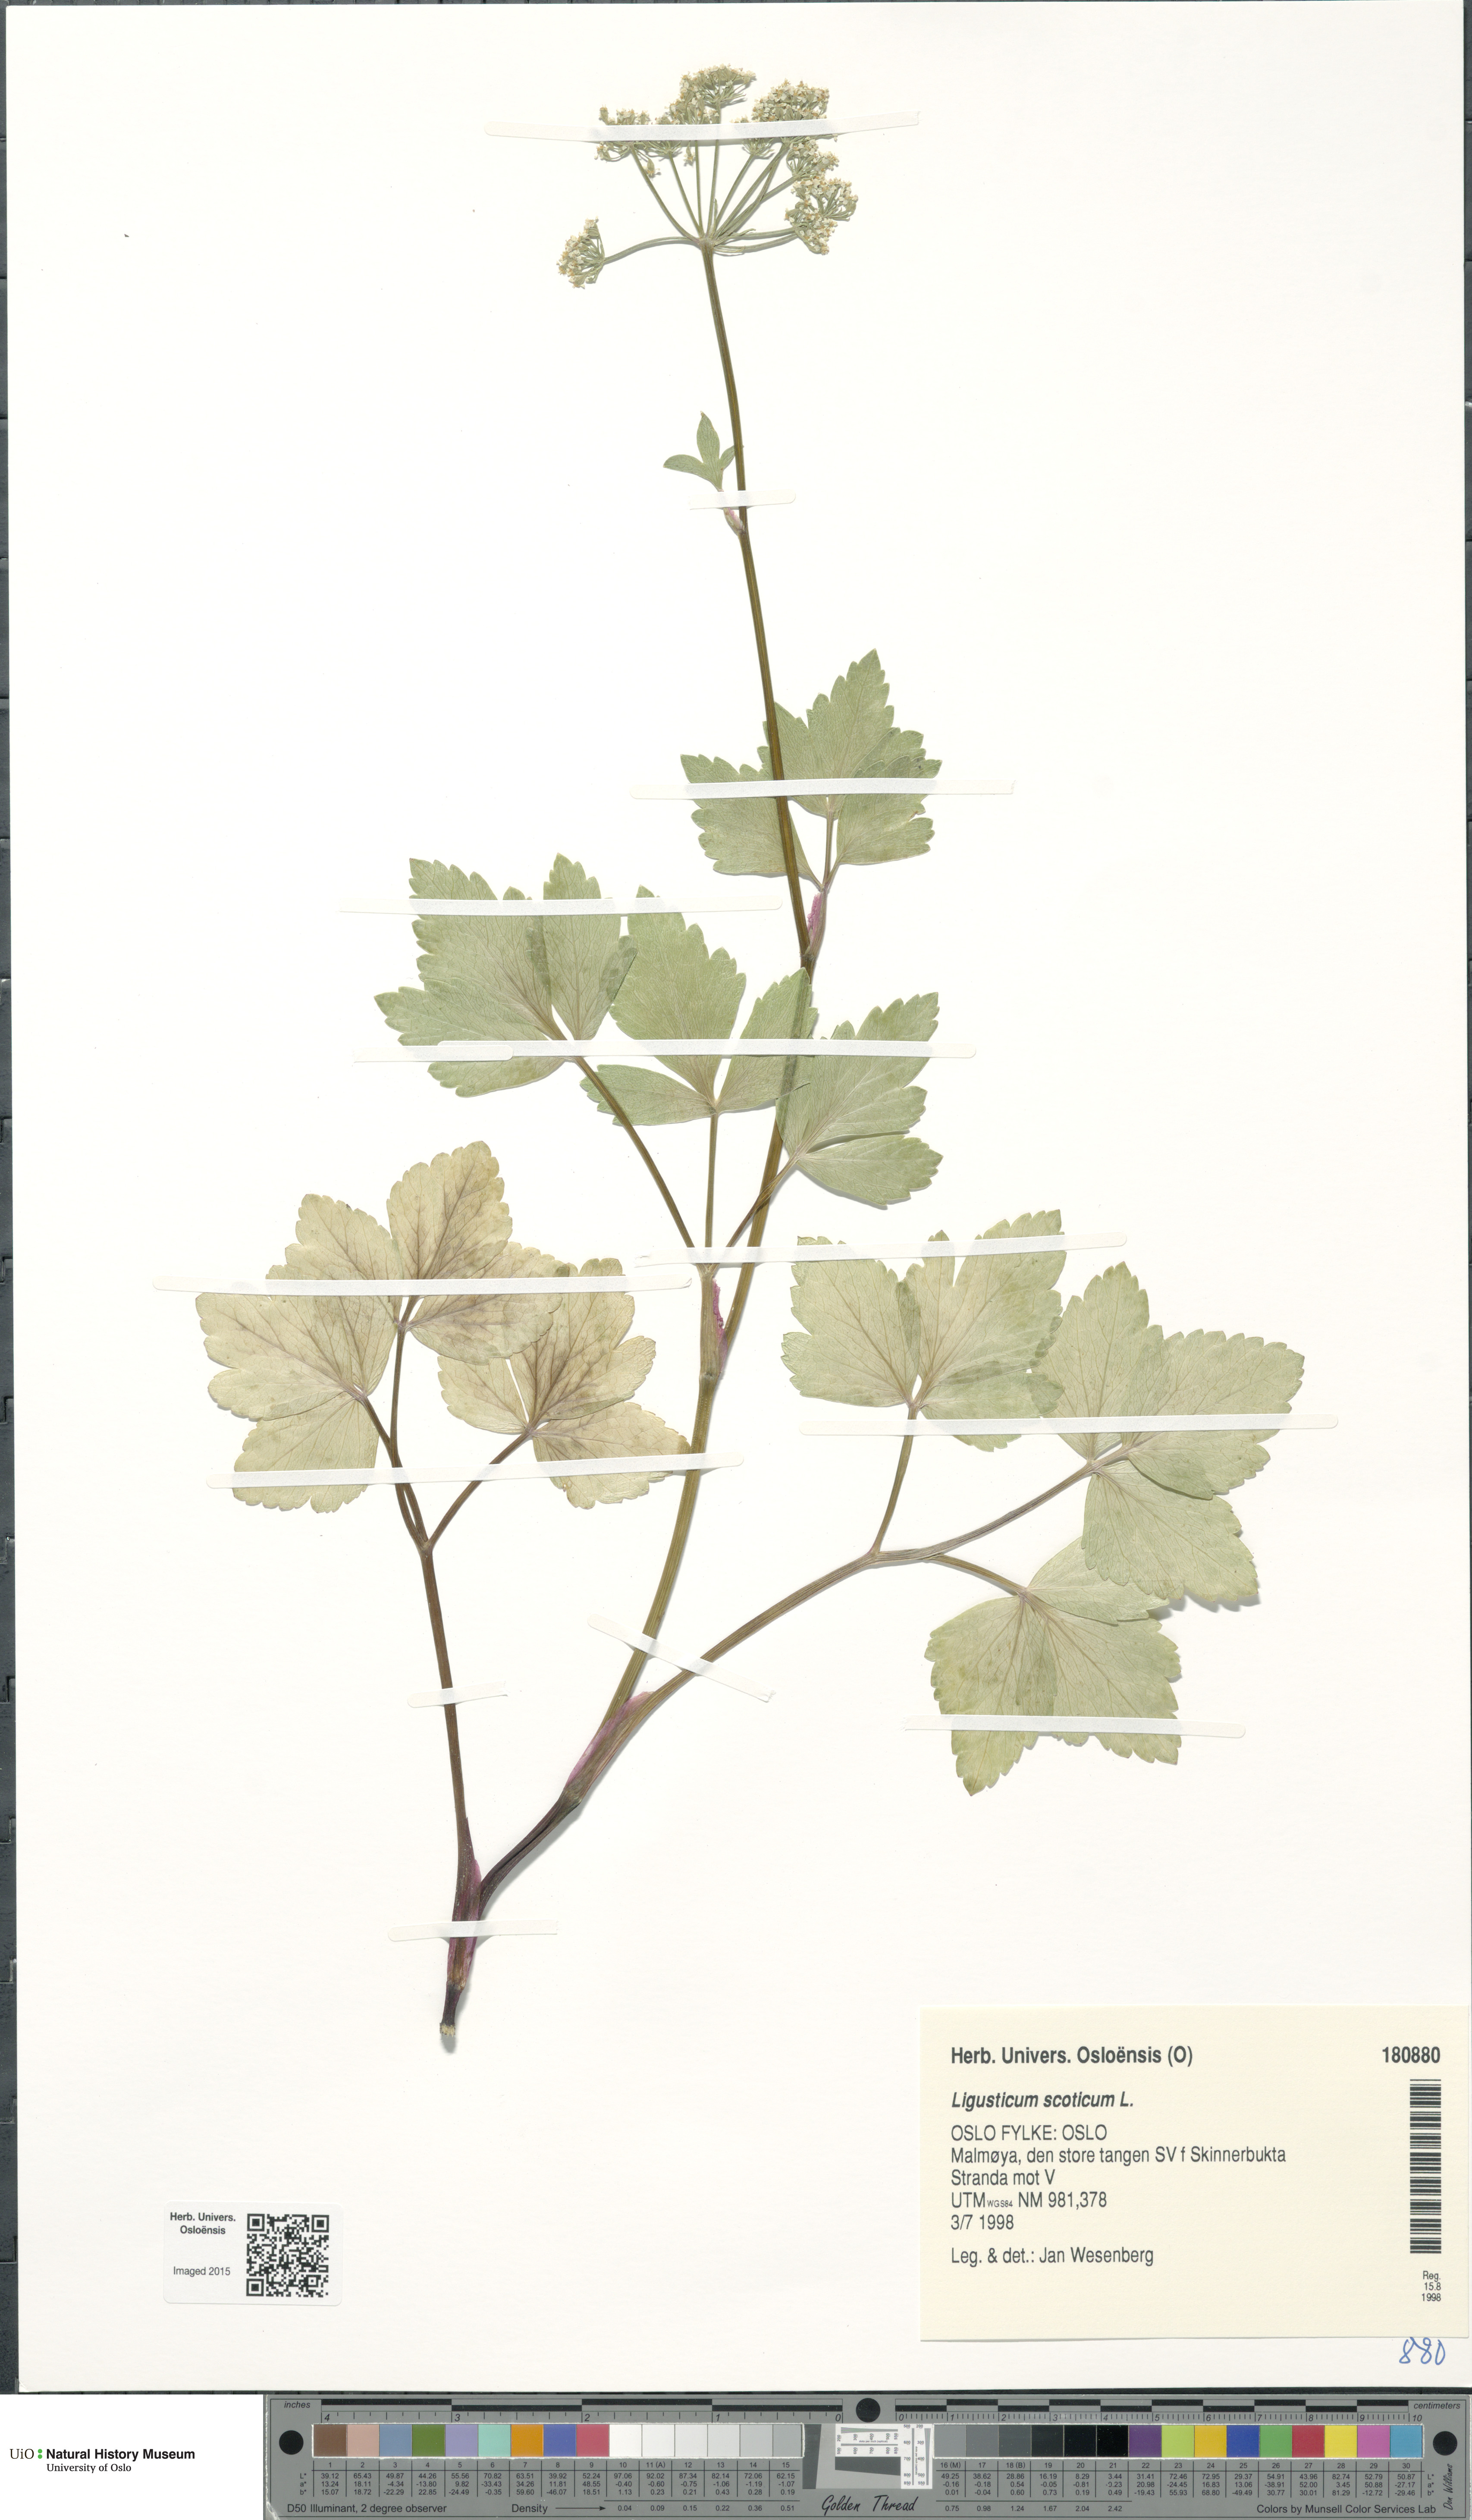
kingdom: Plantae
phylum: Tracheophyta
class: Magnoliopsida
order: Apiales
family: Apiaceae
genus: Ligusticum
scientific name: Ligusticum scothicum
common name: Beach lovage
